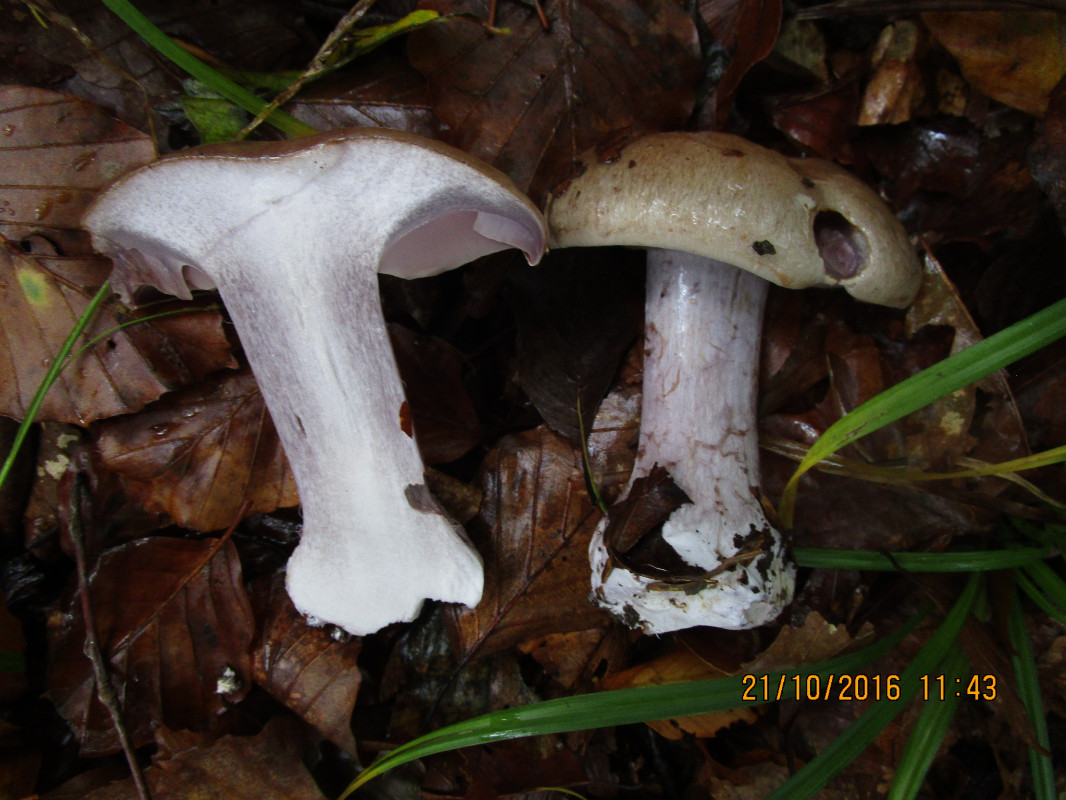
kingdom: Fungi
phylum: Basidiomycota
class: Agaricomycetes
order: Agaricales
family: Cortinariaceae
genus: Cortinarius
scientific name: Cortinarius anserinus
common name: bøge-slørhat
